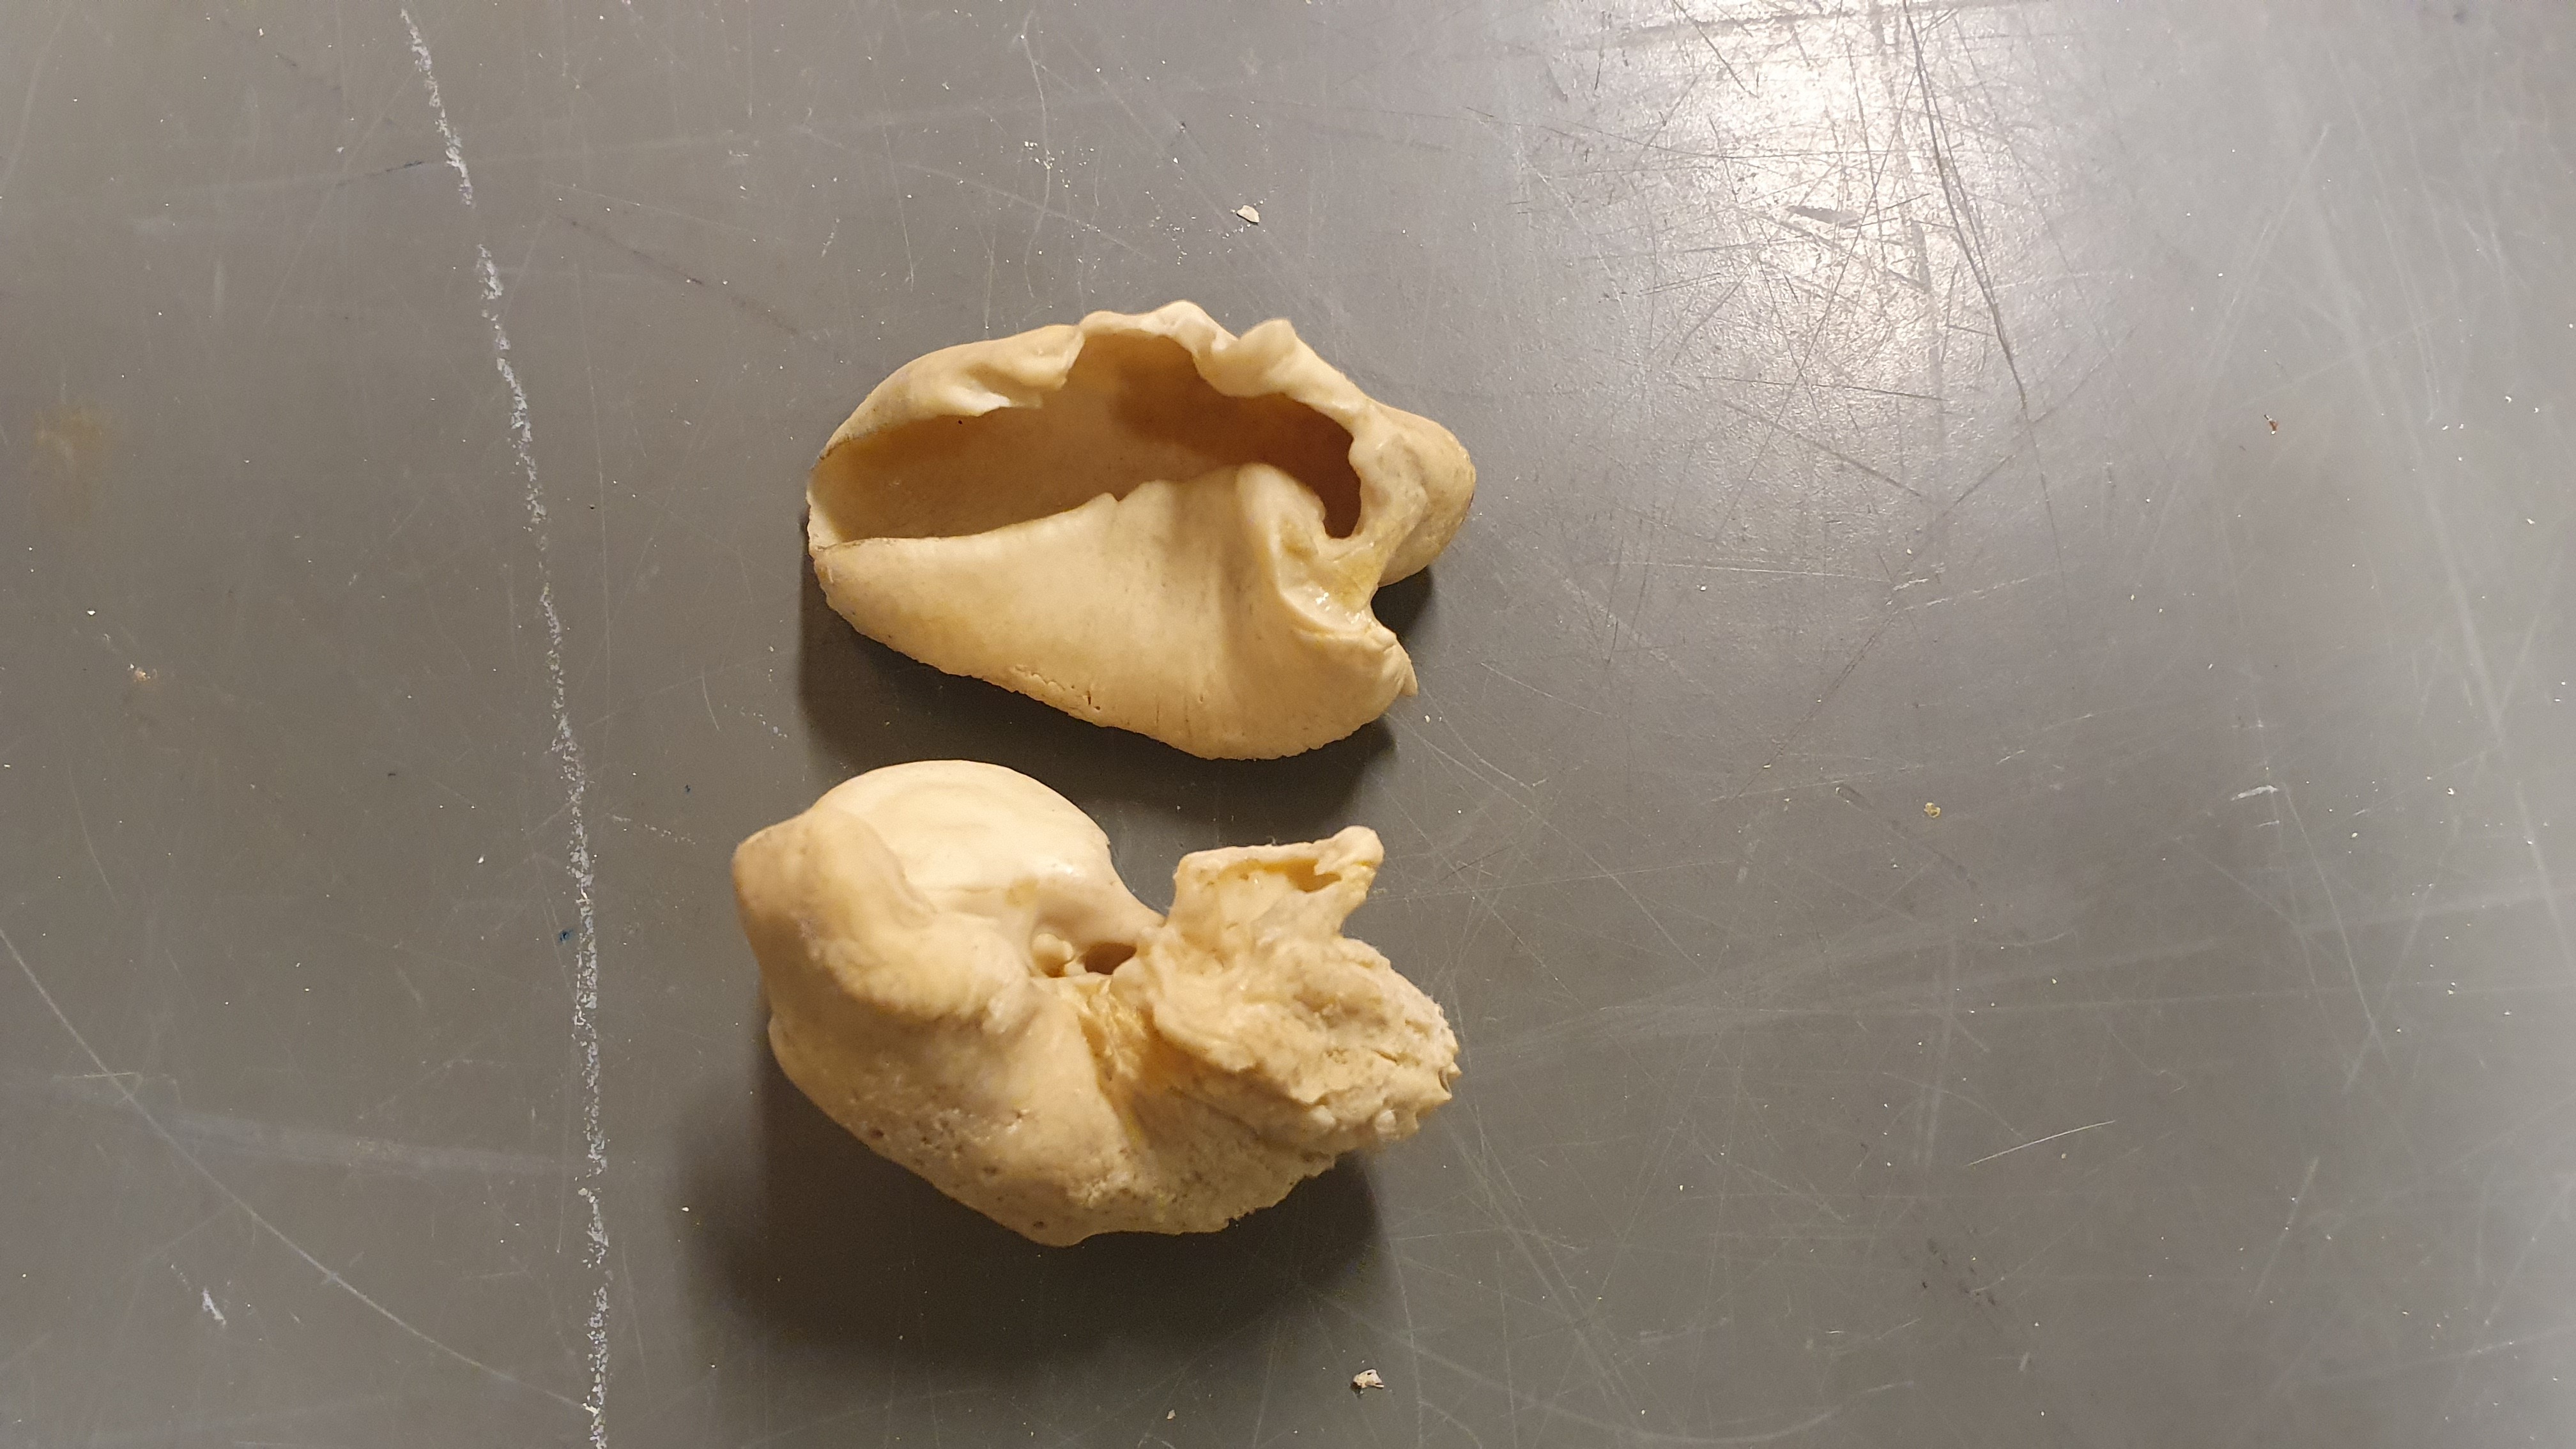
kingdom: Animalia
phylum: Chordata
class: Mammalia
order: Cetacea
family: Monodontidae
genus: Delphinapterus
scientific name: Delphinapterus leucas
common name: Beluga
